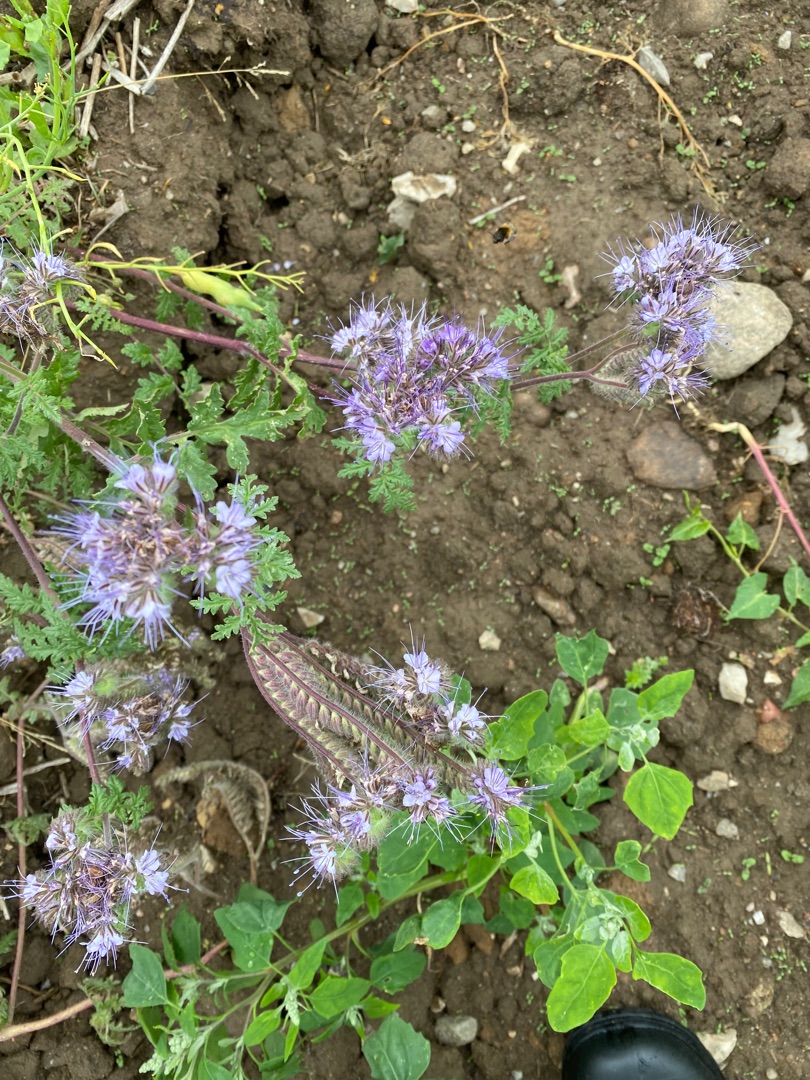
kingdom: Plantae
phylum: Tracheophyta
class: Magnoliopsida
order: Boraginales
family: Hydrophyllaceae
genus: Phacelia
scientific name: Phacelia tanacetifolia
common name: Honningurt
